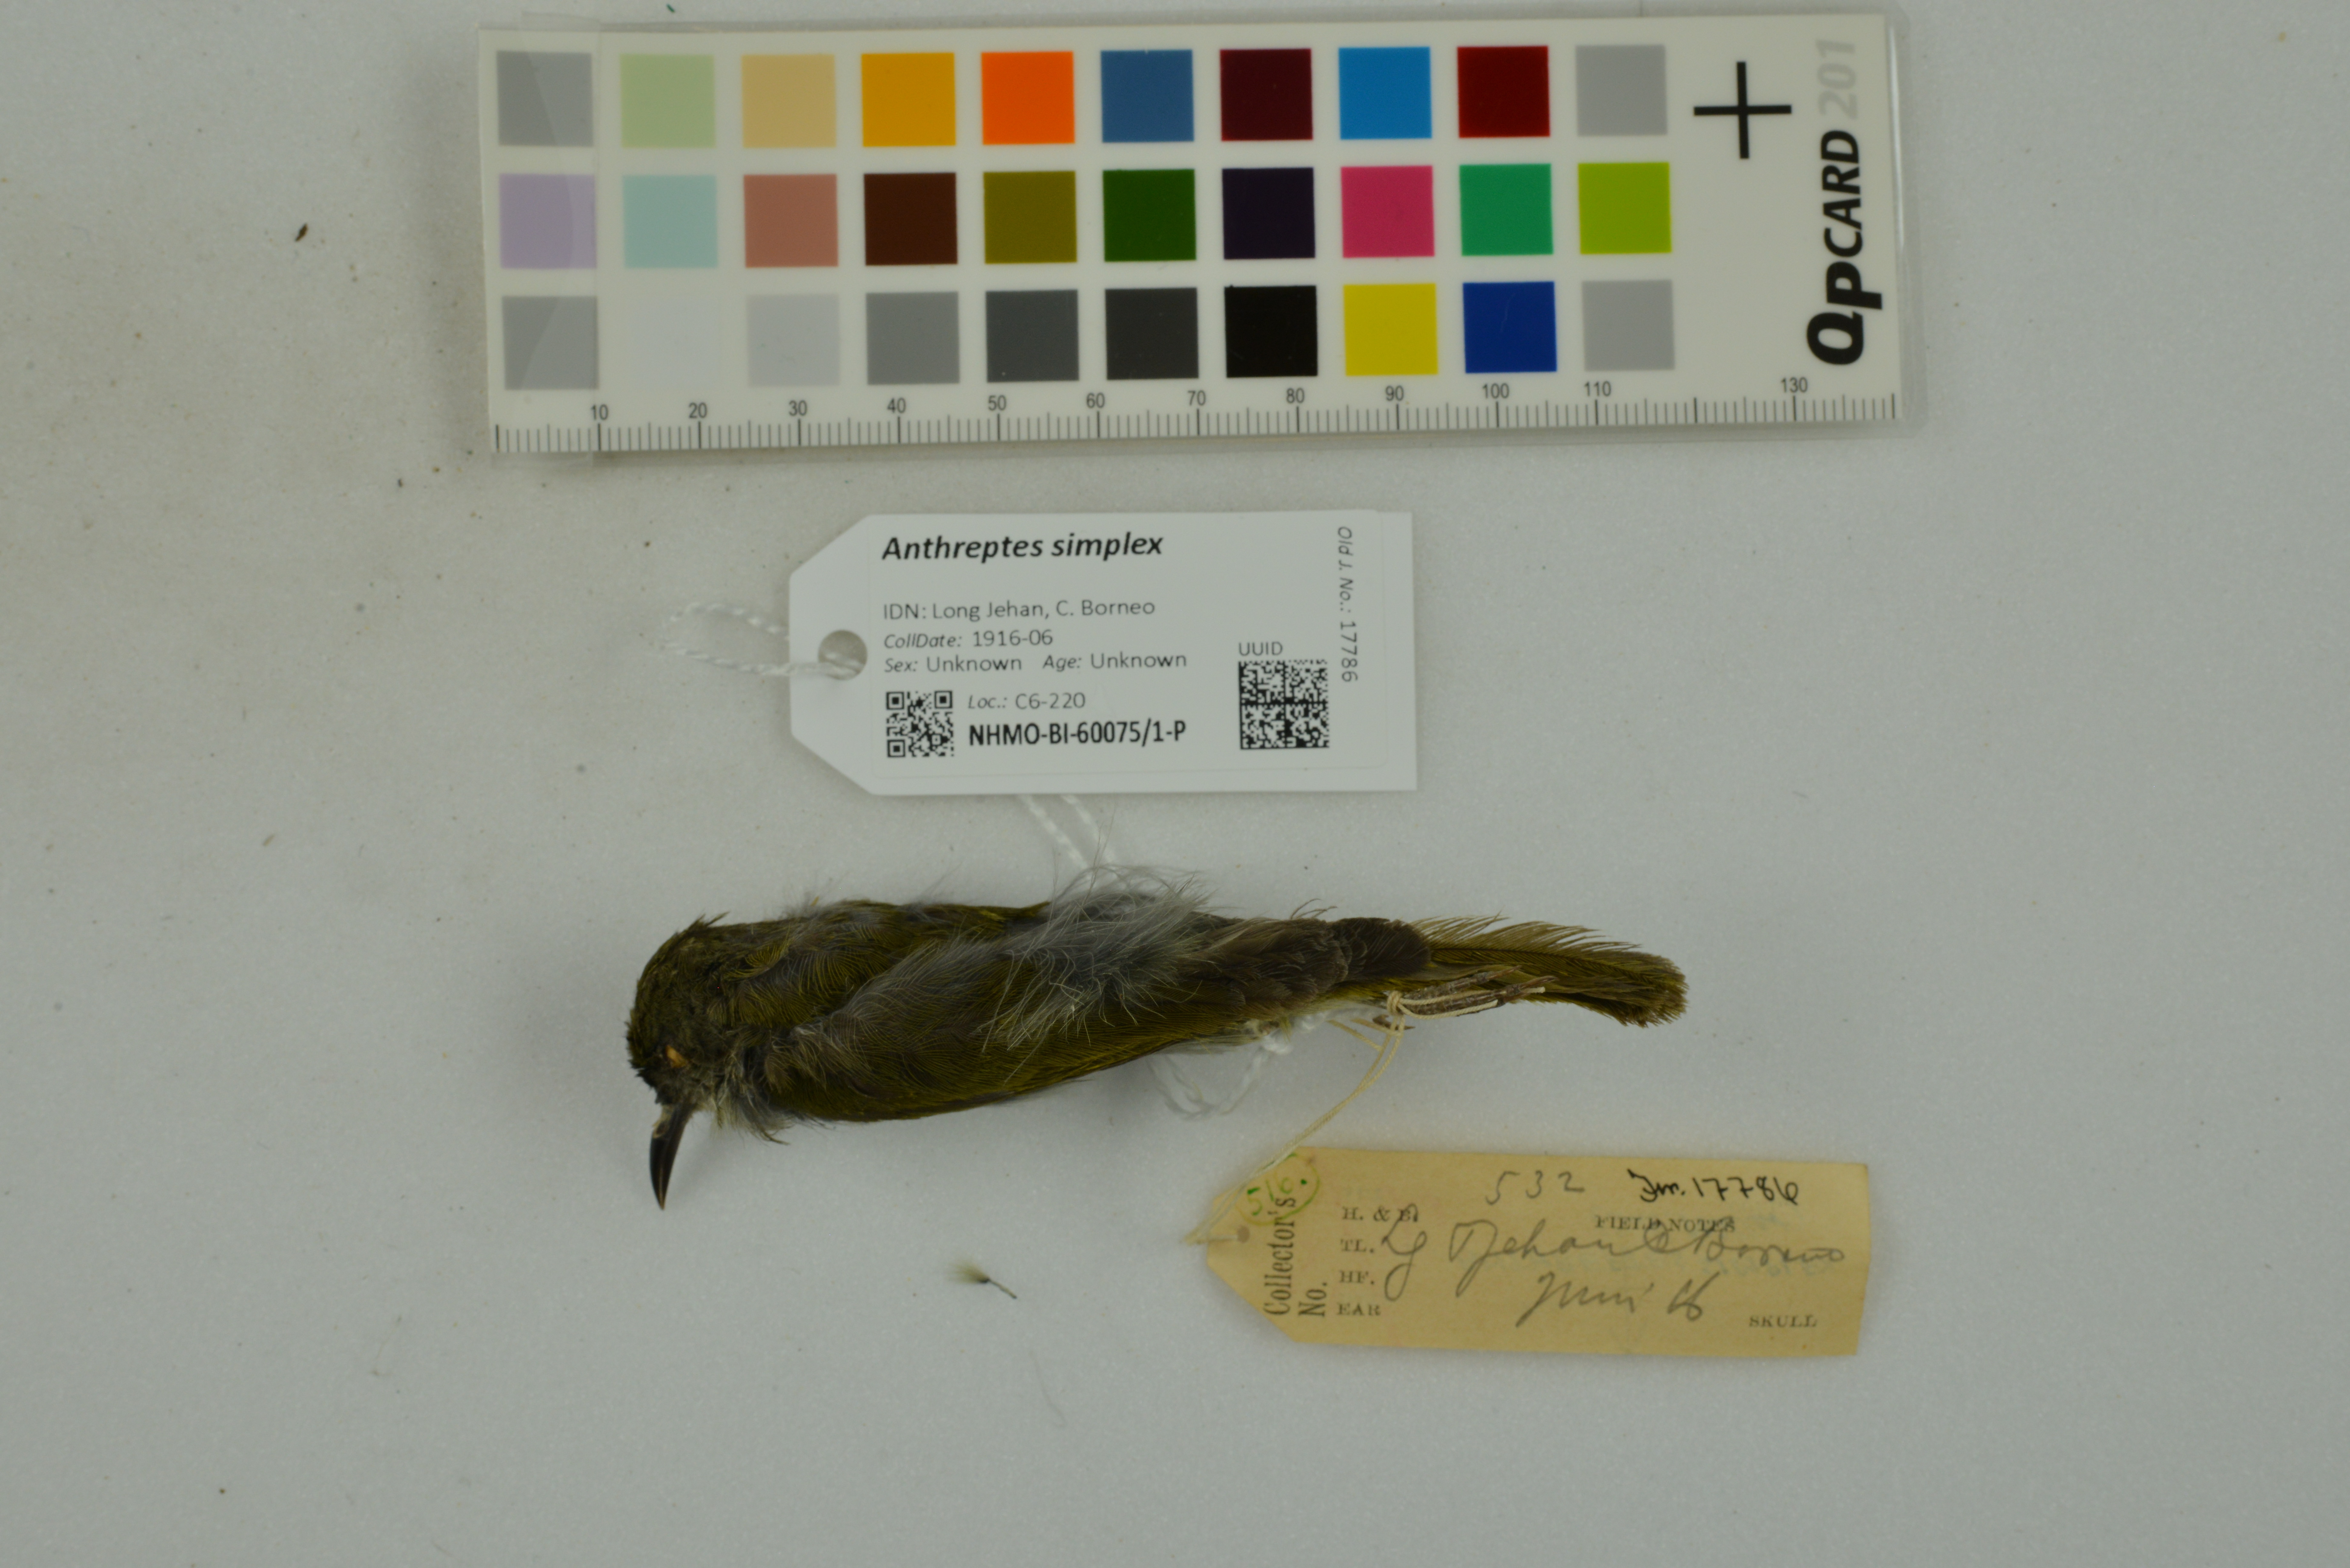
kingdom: Animalia
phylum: Chordata
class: Aves
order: Passeriformes
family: Nectariniidae
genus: Anthreptes
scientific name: Anthreptes simplex
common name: Plain sunbird
